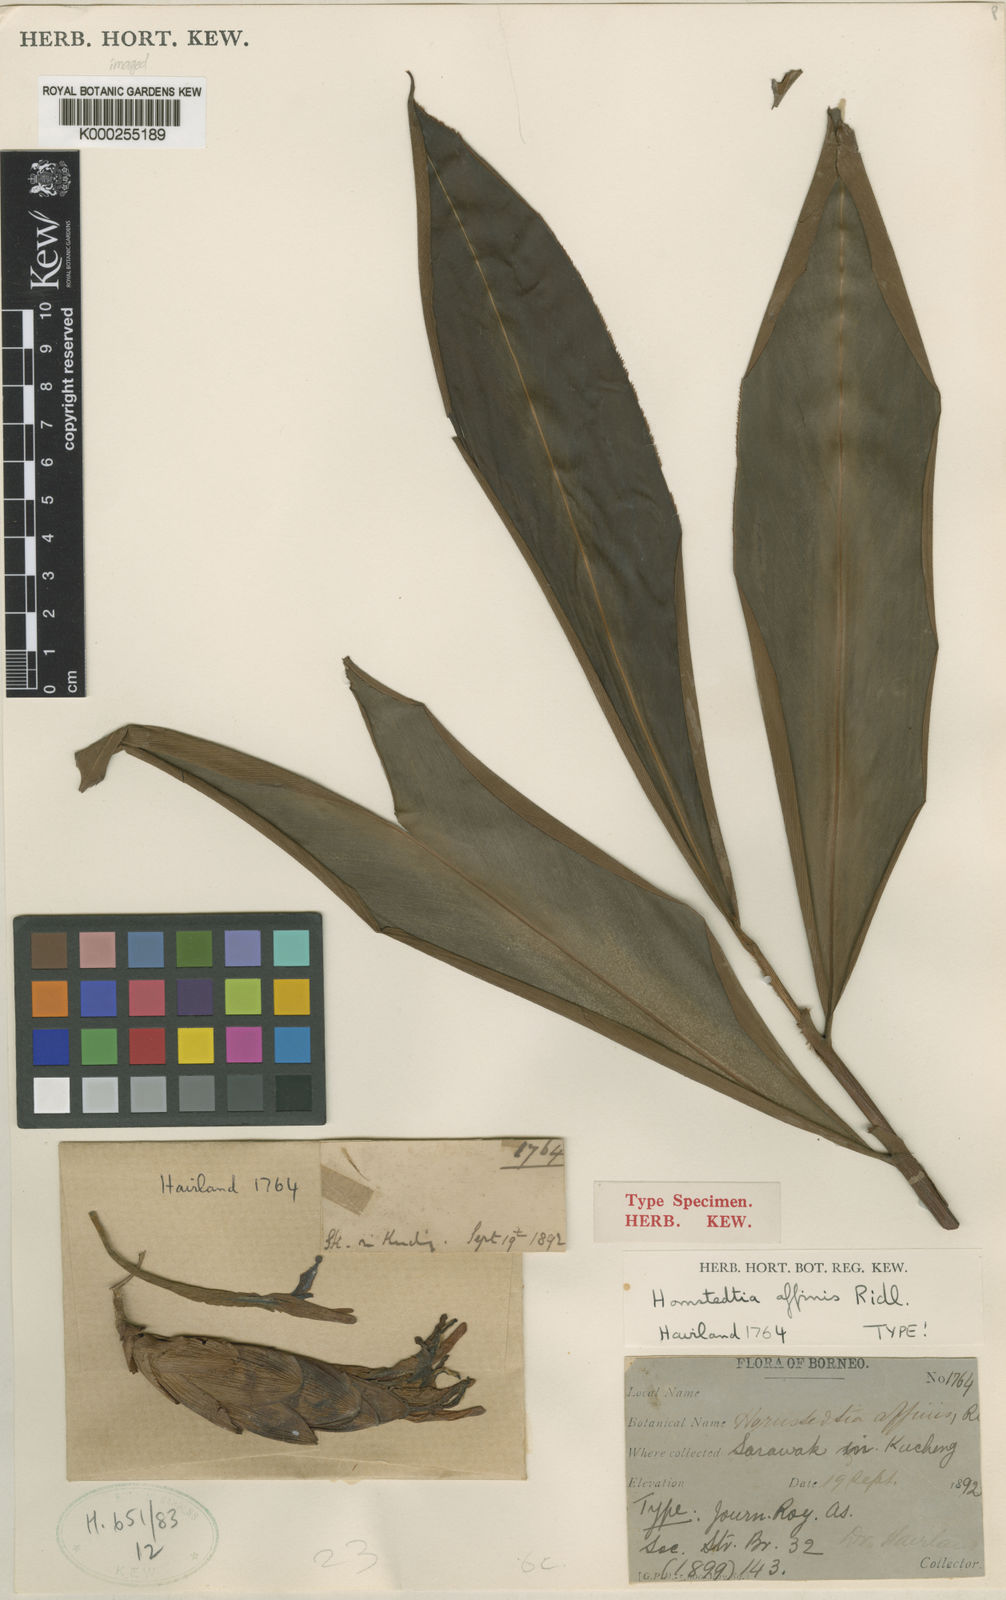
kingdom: Plantae
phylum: Tracheophyta
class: Liliopsida
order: Zingiberales
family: Zingiberaceae
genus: Hornstedtia
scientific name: Hornstedtia affinis
